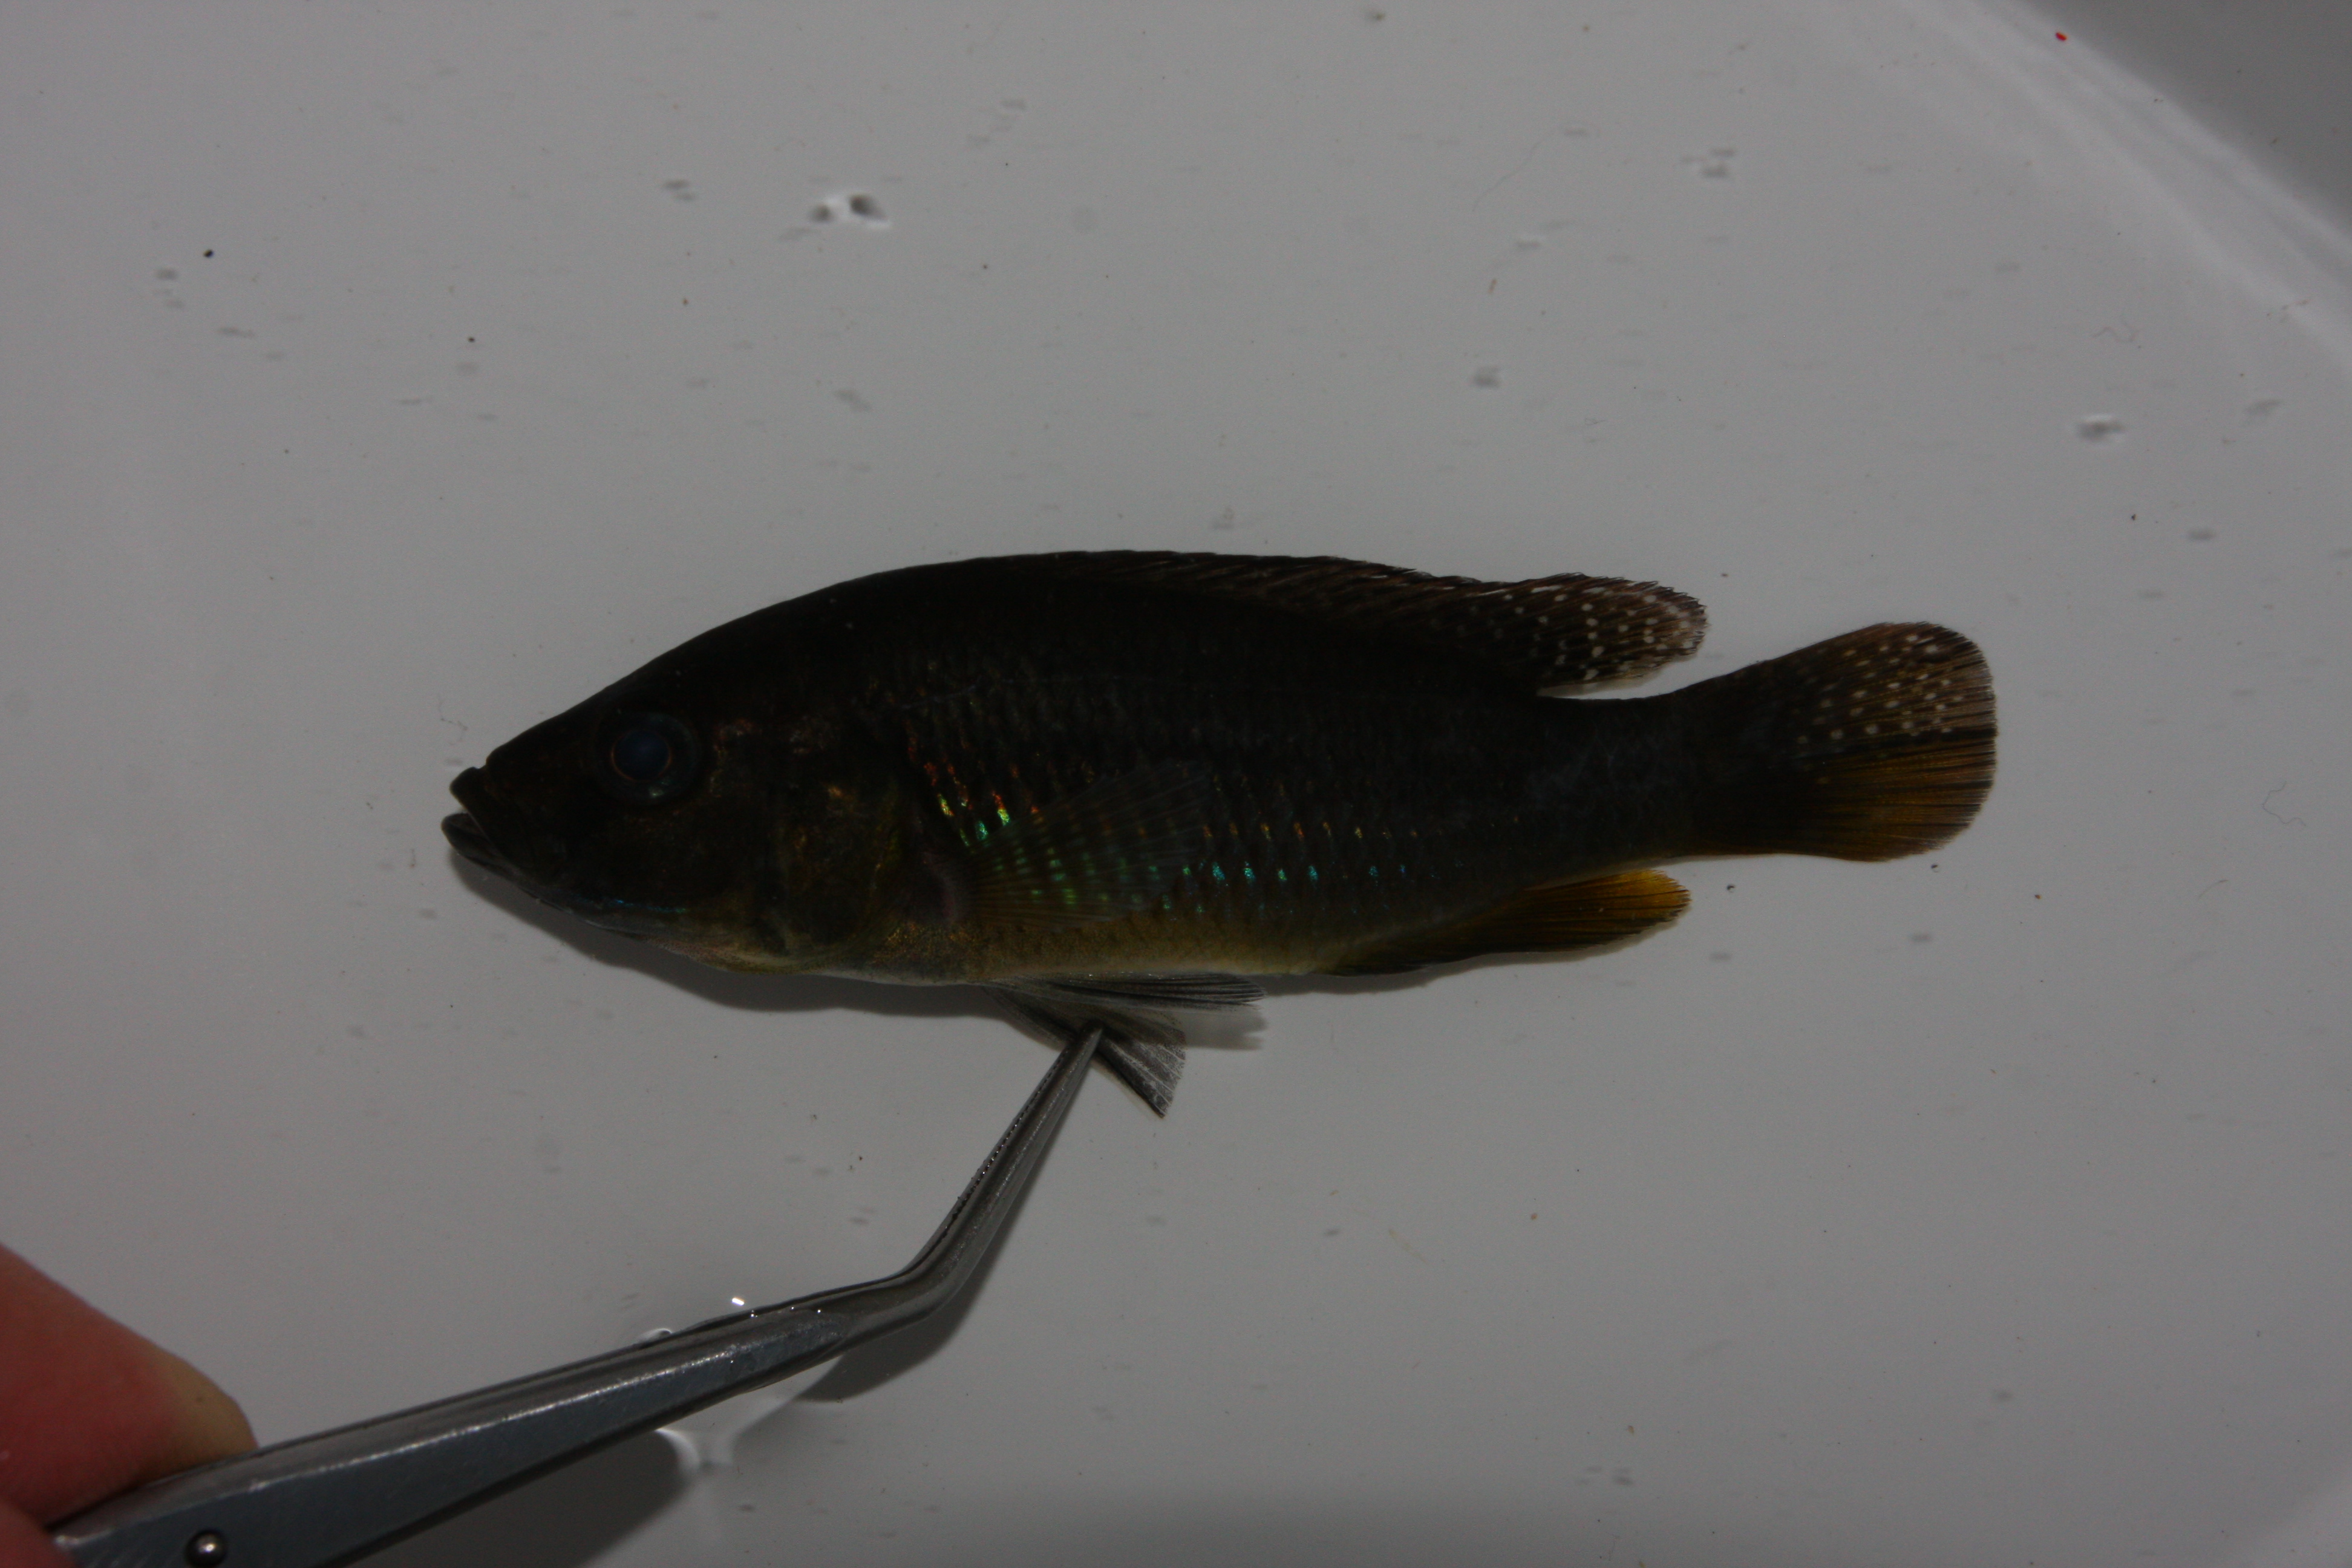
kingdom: Animalia
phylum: Chordata
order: Perciformes
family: Cichlidae
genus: Pseudocrenilabrus
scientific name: Pseudocrenilabrus philander
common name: Southern mouthbrooder
